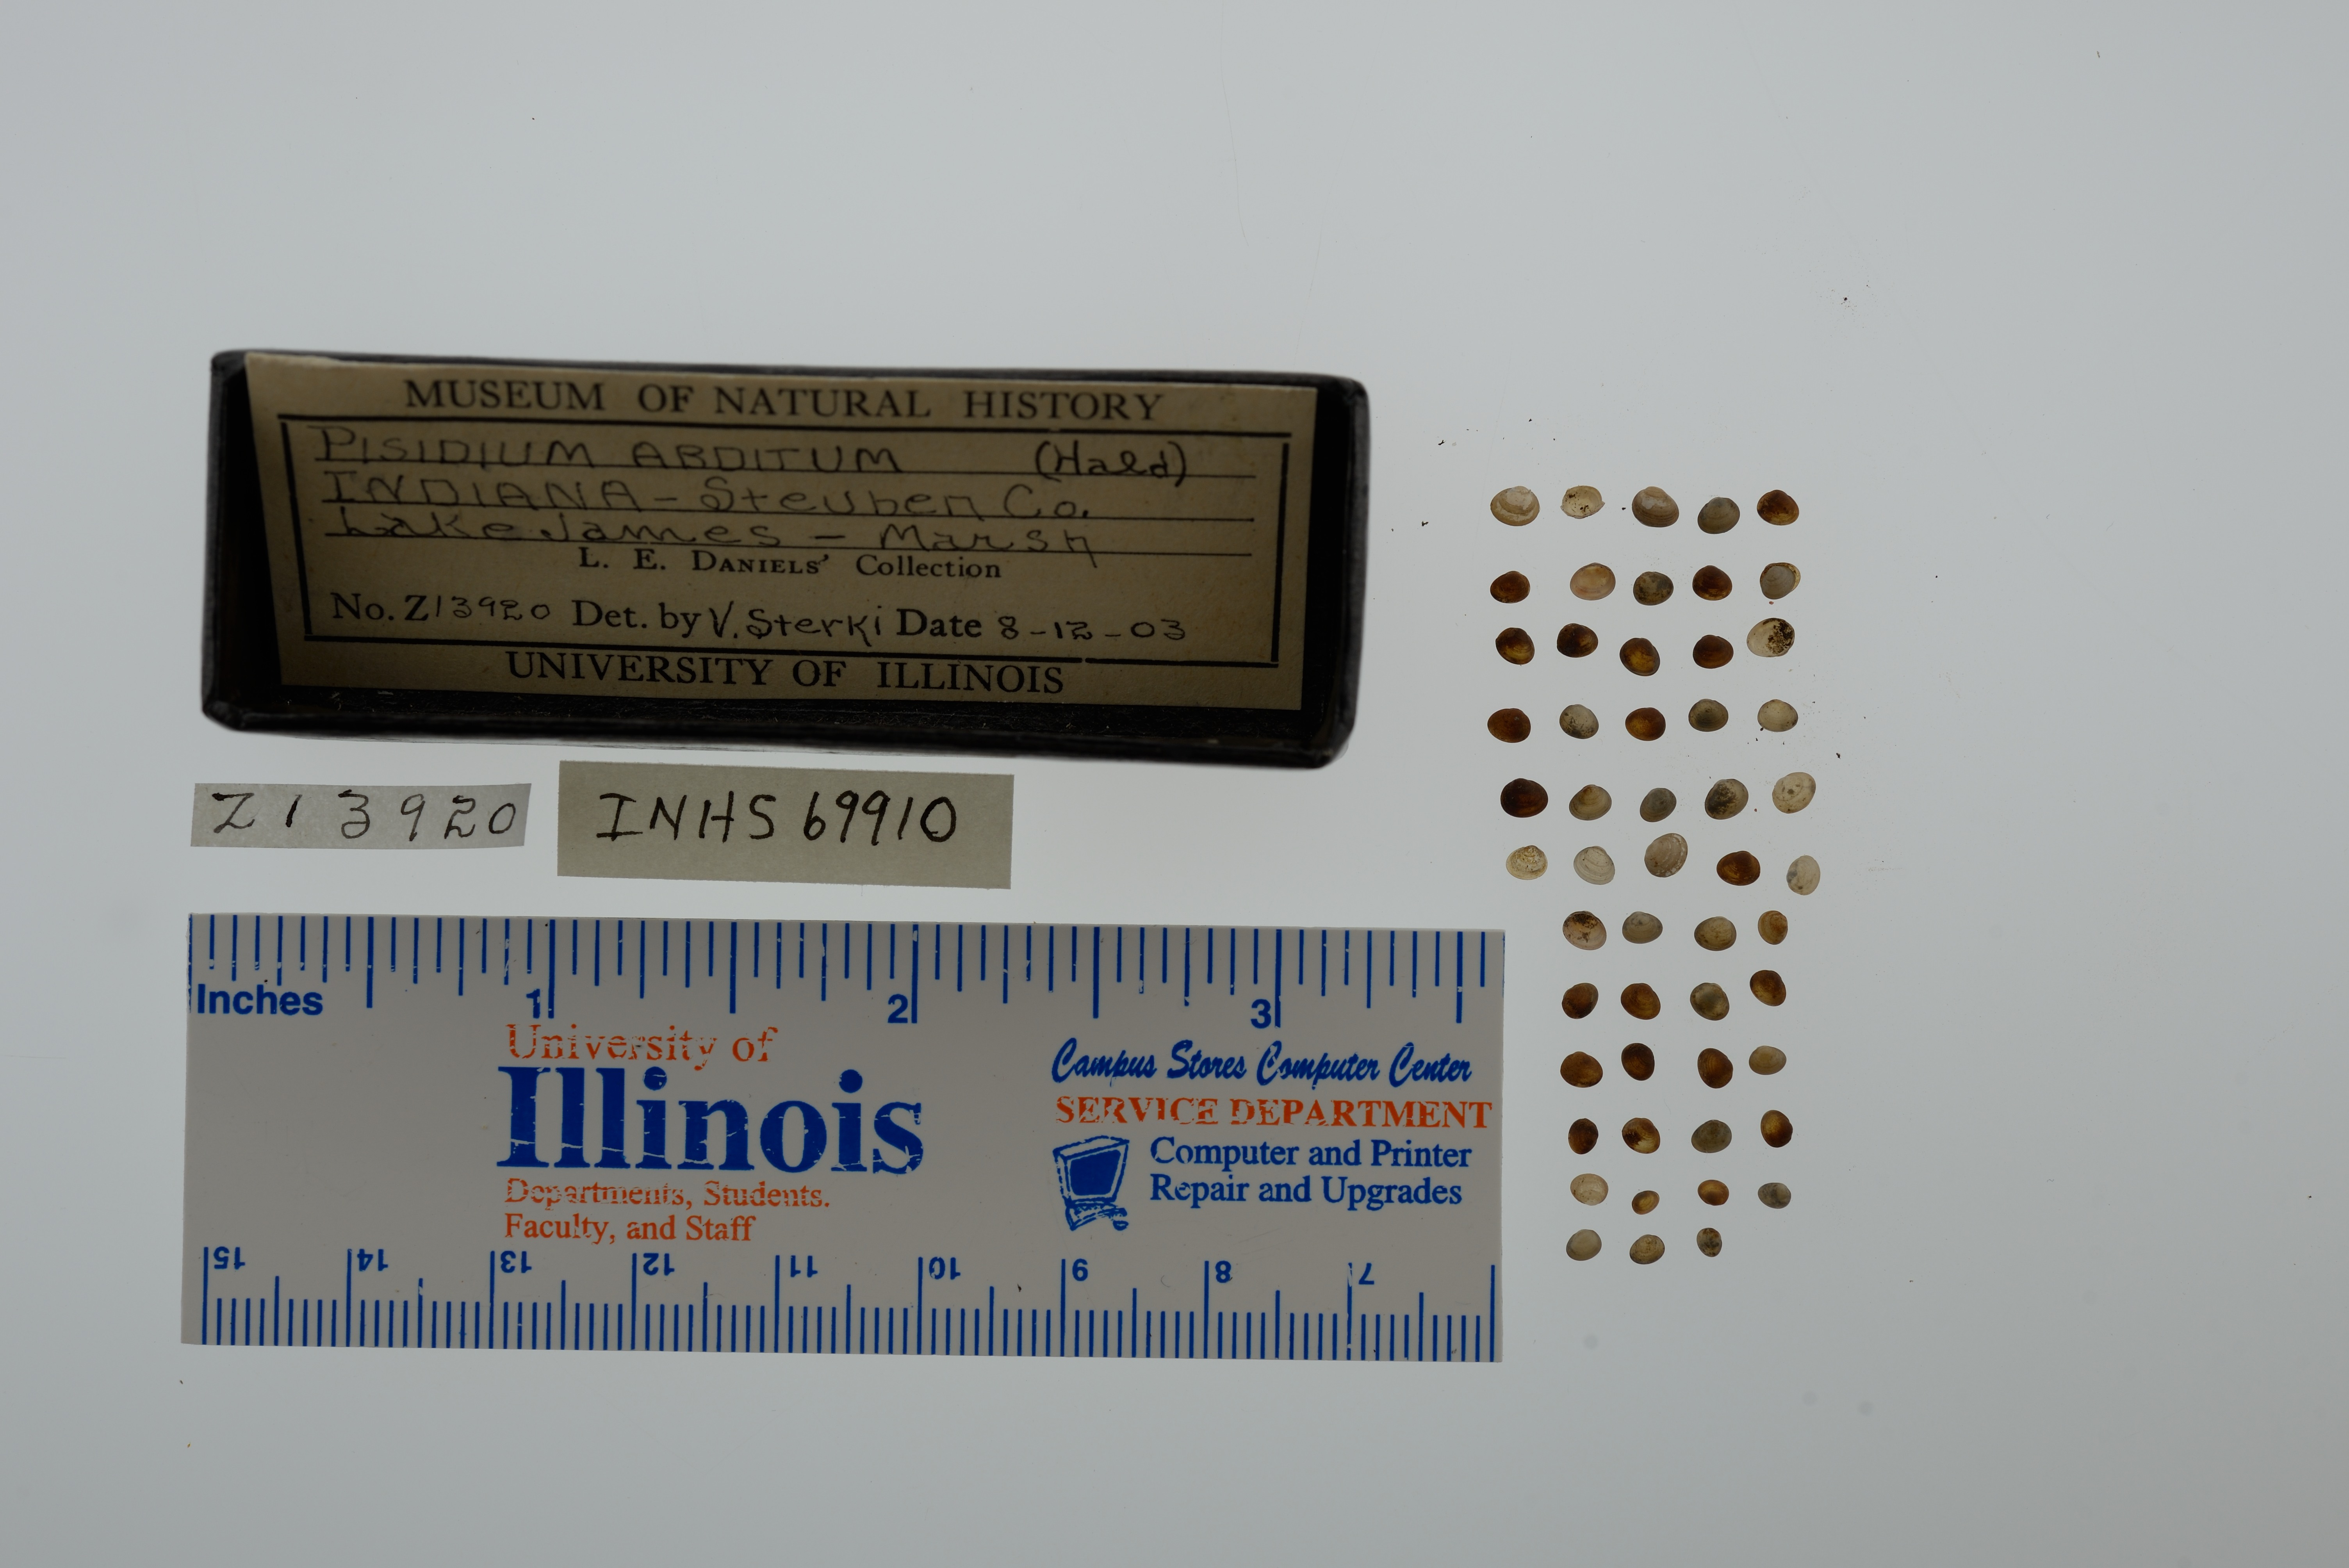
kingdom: Animalia
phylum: Mollusca
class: Bivalvia
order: Sphaeriida
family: Sphaeriidae
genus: Euglesa
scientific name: Euglesa casertana
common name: Caserta pea mussel
